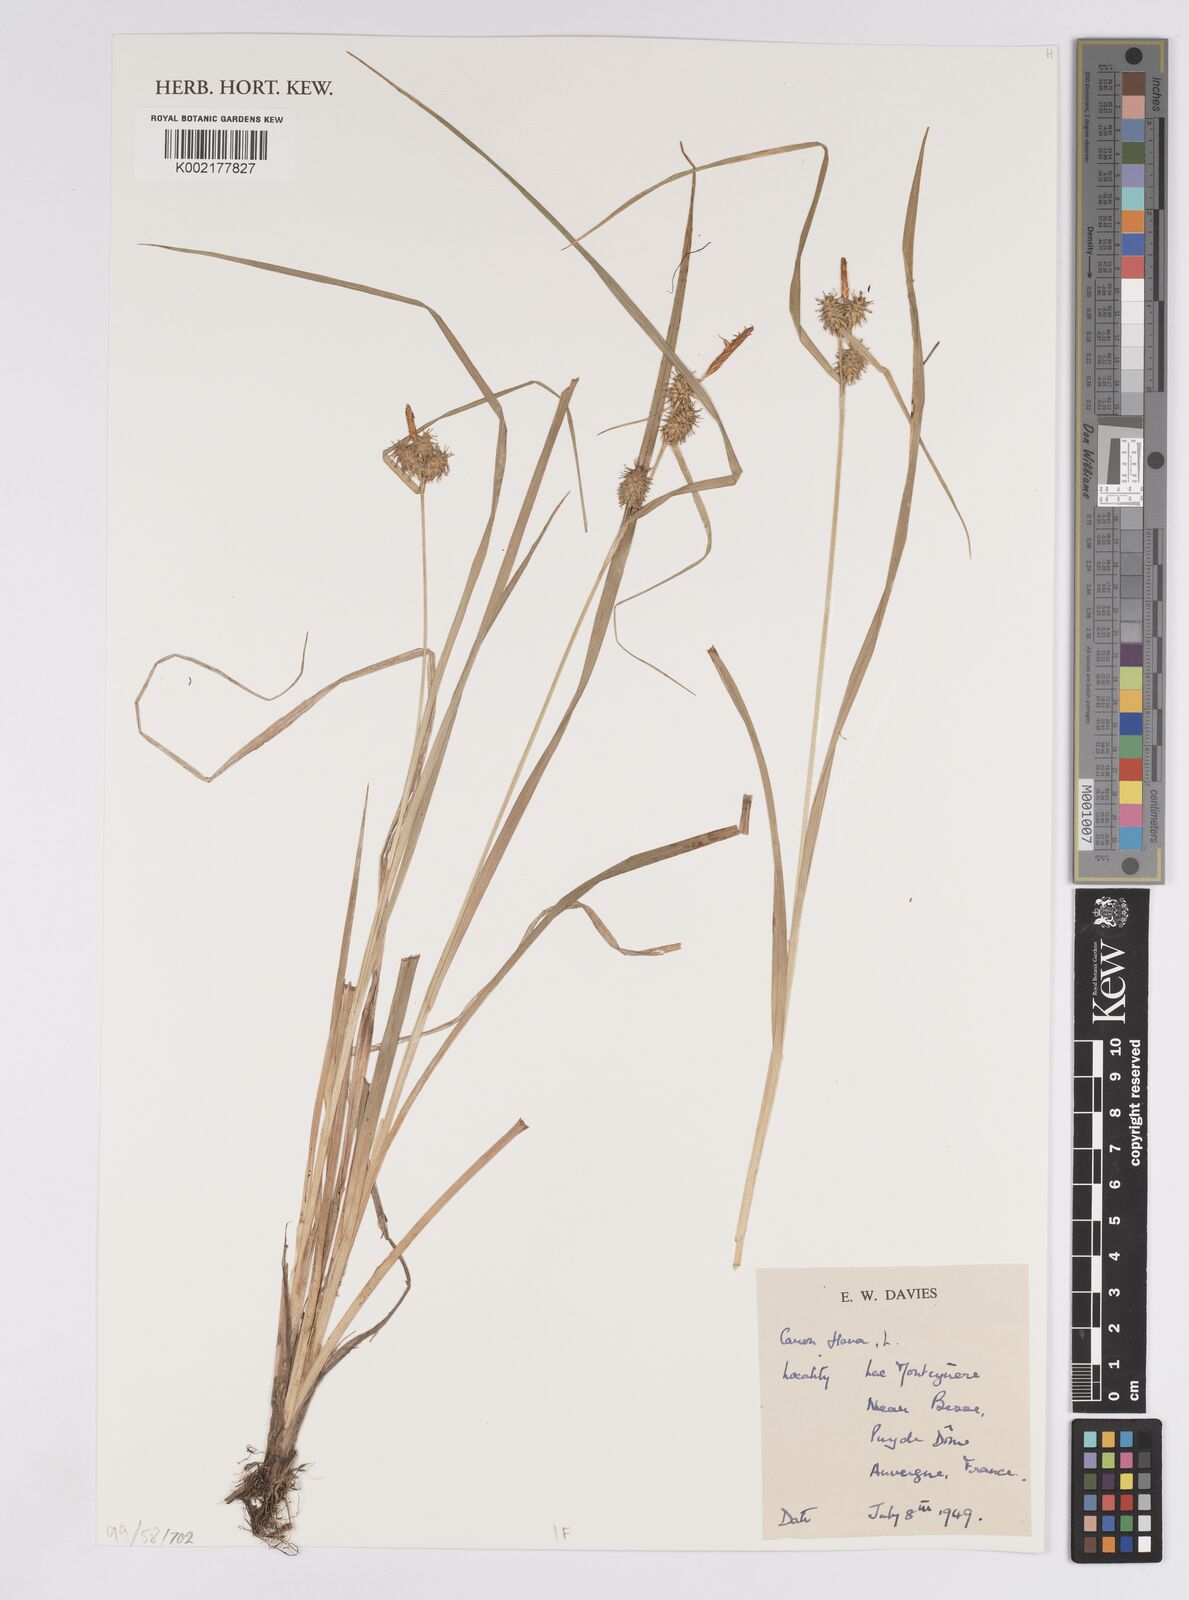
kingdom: Plantae
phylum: Tracheophyta
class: Liliopsida
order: Poales
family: Cyperaceae
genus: Carex
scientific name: Carex flava
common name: Large yellow-sedge
